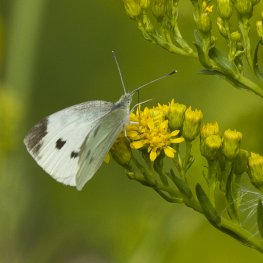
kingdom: Animalia
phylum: Arthropoda
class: Insecta
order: Lepidoptera
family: Pieridae
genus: Pieris
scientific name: Pieris rapae
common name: Cabbage White
